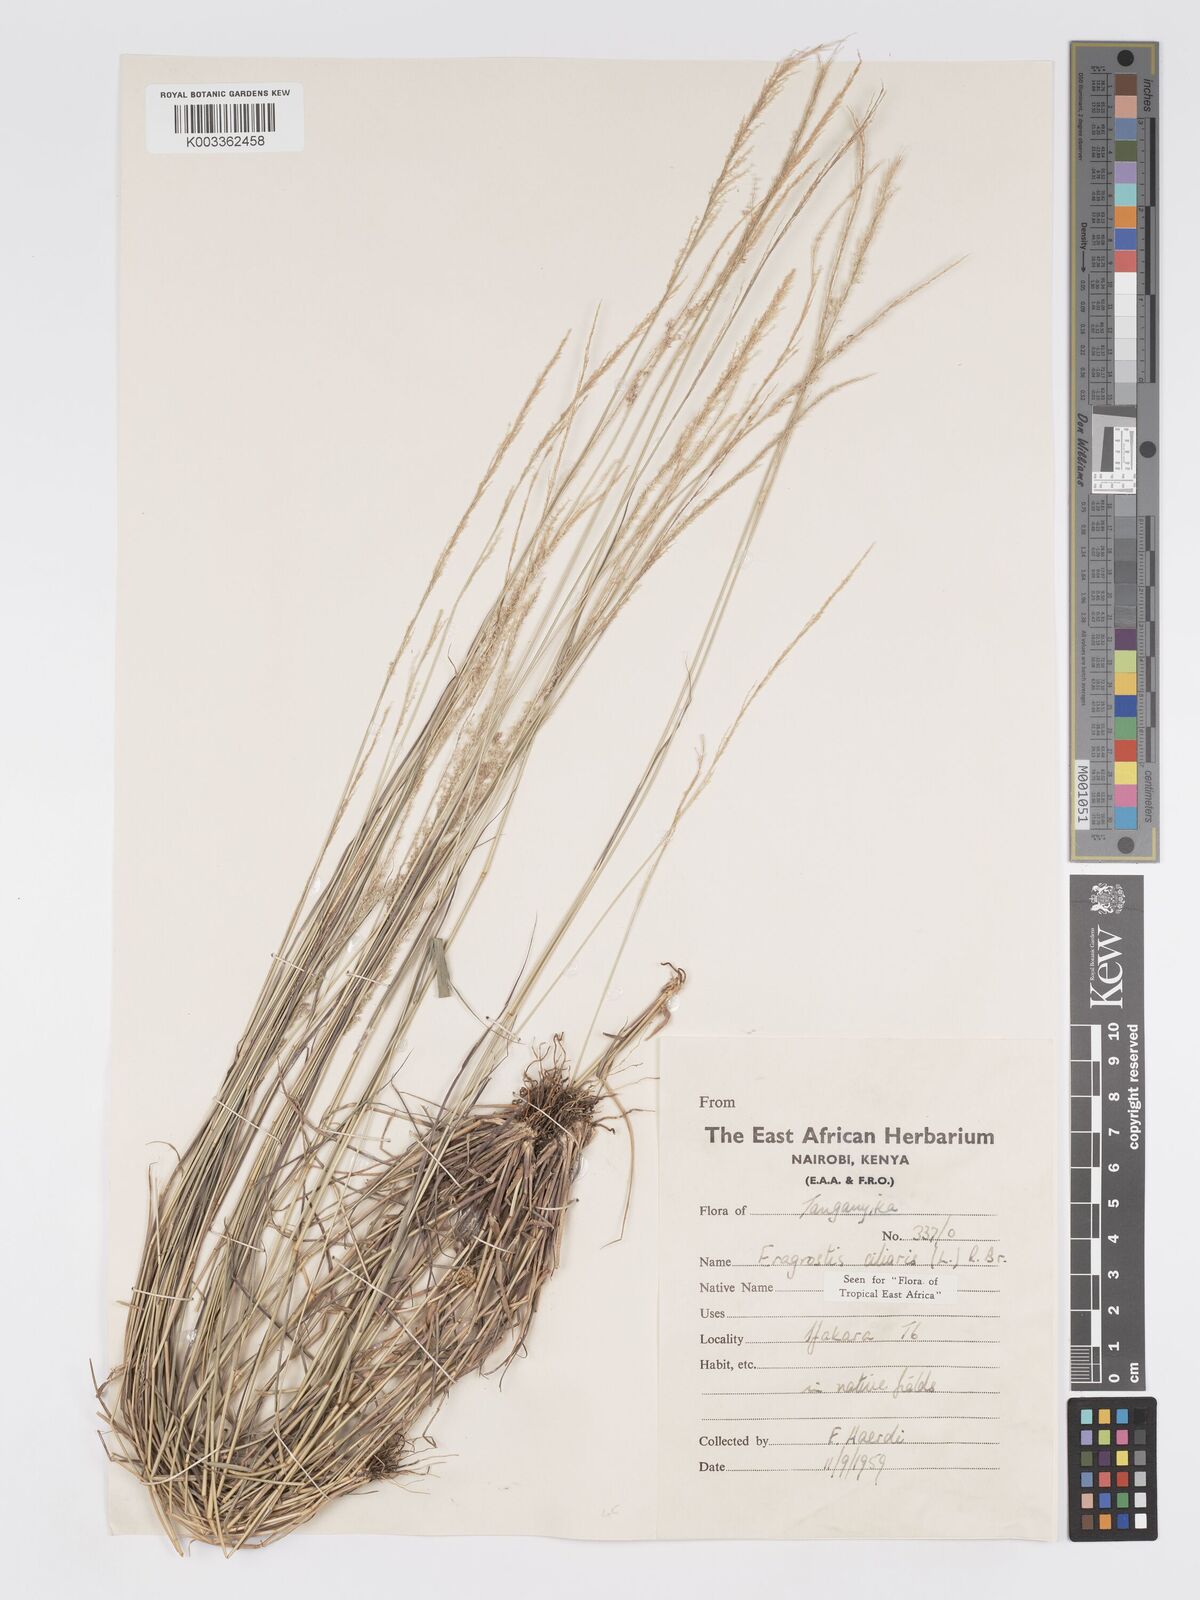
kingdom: Plantae
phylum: Tracheophyta
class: Liliopsida
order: Poales
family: Poaceae
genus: Eragrostis
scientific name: Eragrostis ciliaris
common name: Gophertail lovegrass
